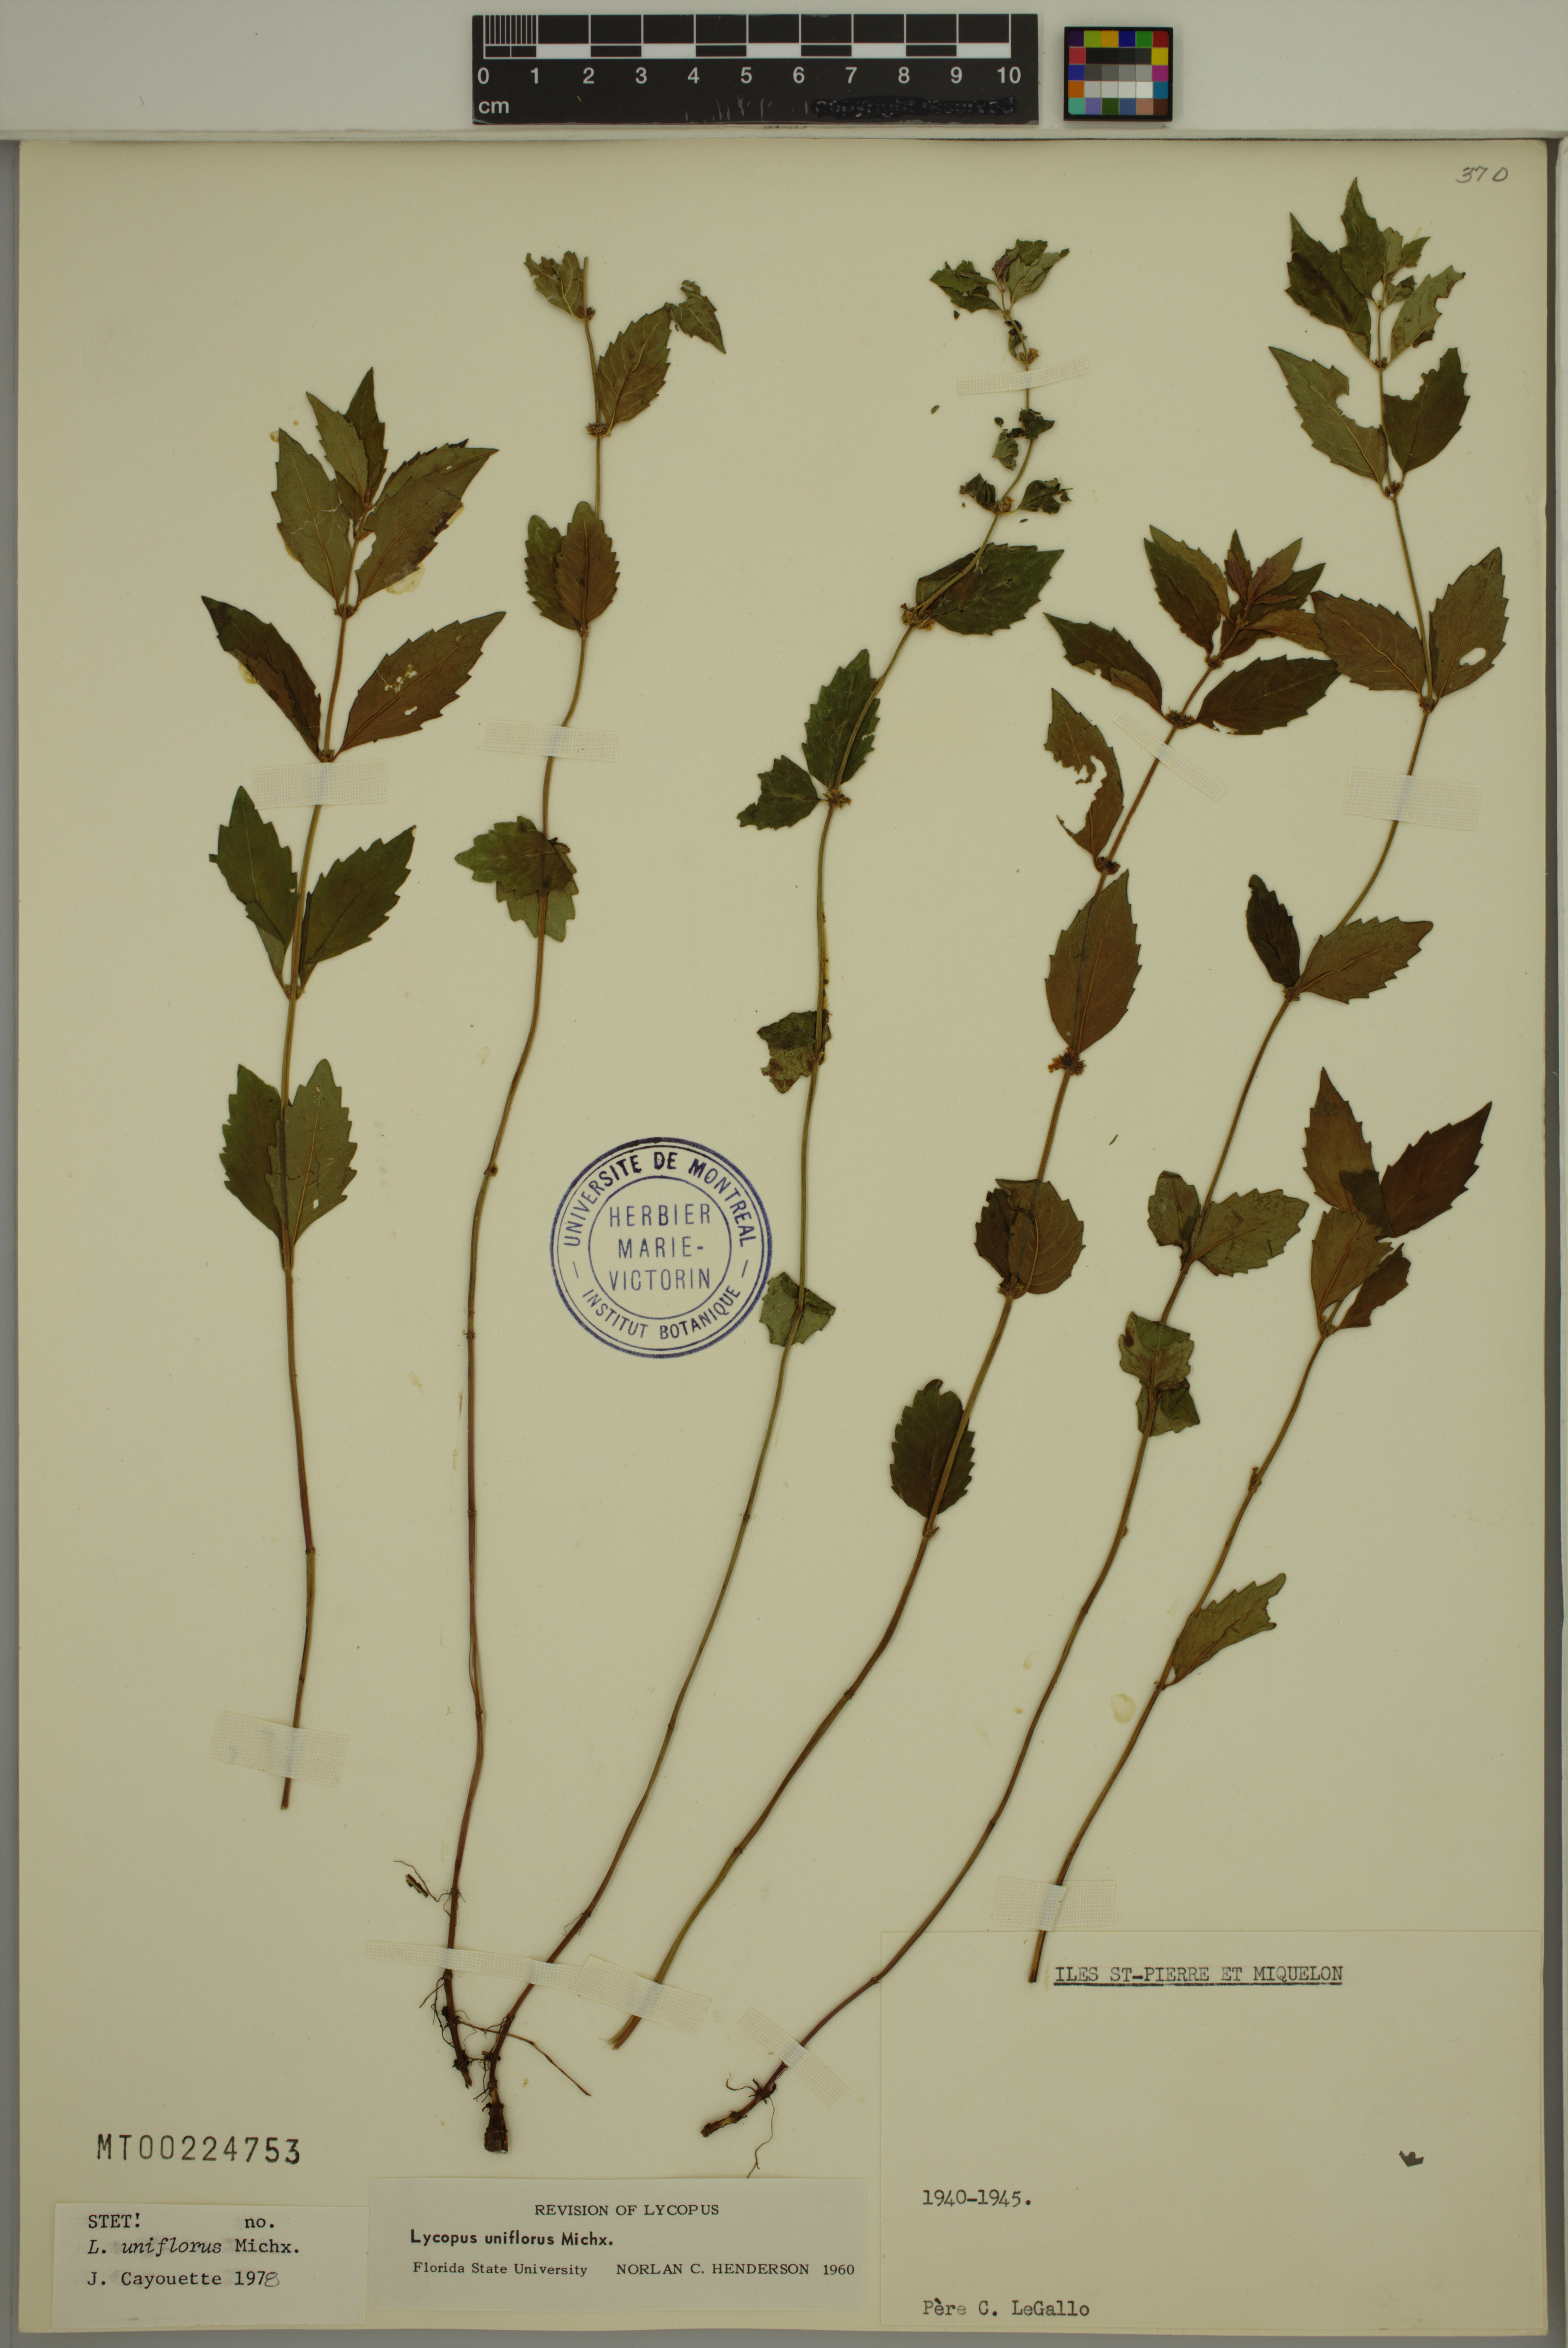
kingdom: Plantae
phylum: Tracheophyta
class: Magnoliopsida
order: Lamiales
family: Lamiaceae
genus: Lycopus
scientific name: Lycopus uniflorus
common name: Northern bugleweed
